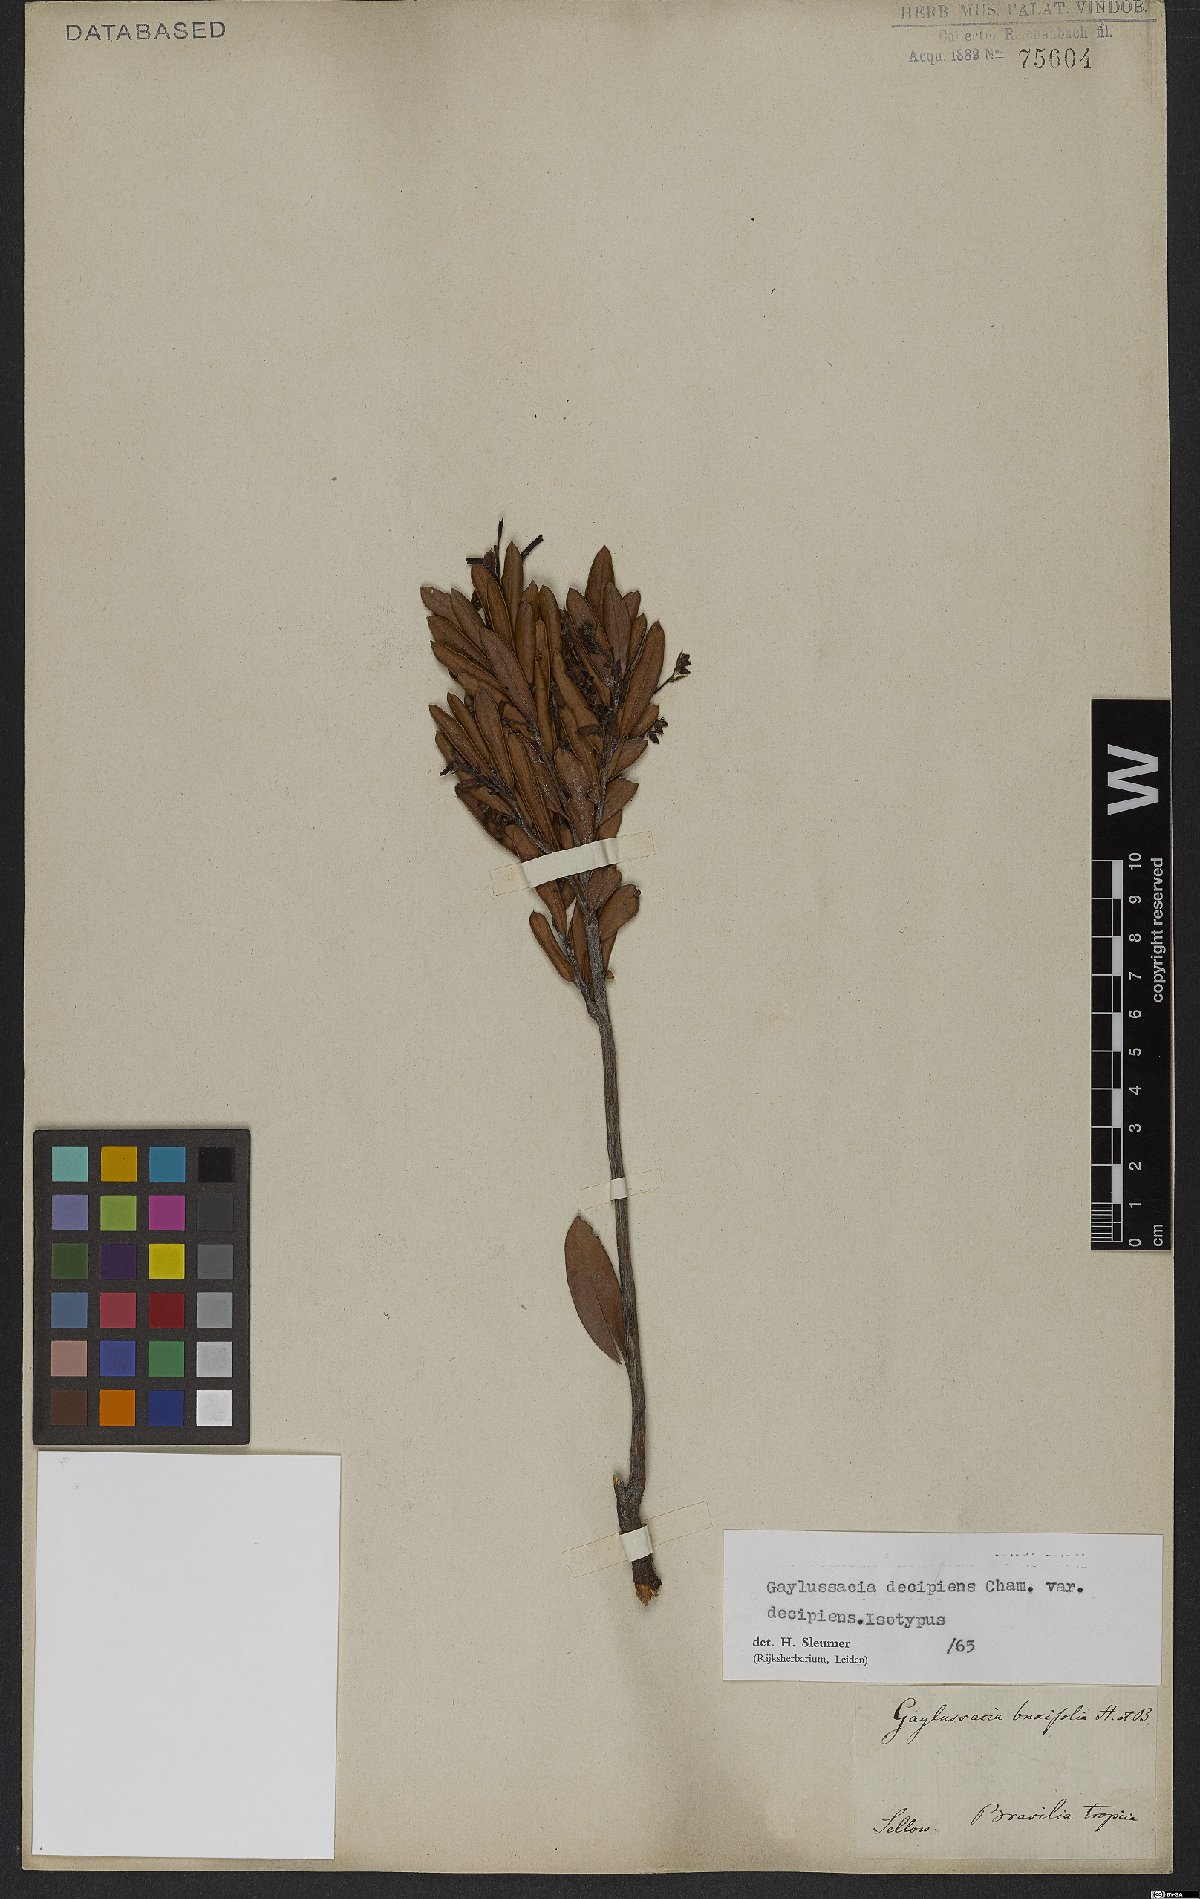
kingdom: Plantae
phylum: Tracheophyta
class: Magnoliopsida
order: Ericales
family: Ericaceae
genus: Gaylussacia
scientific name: Gaylussacia decipiens
